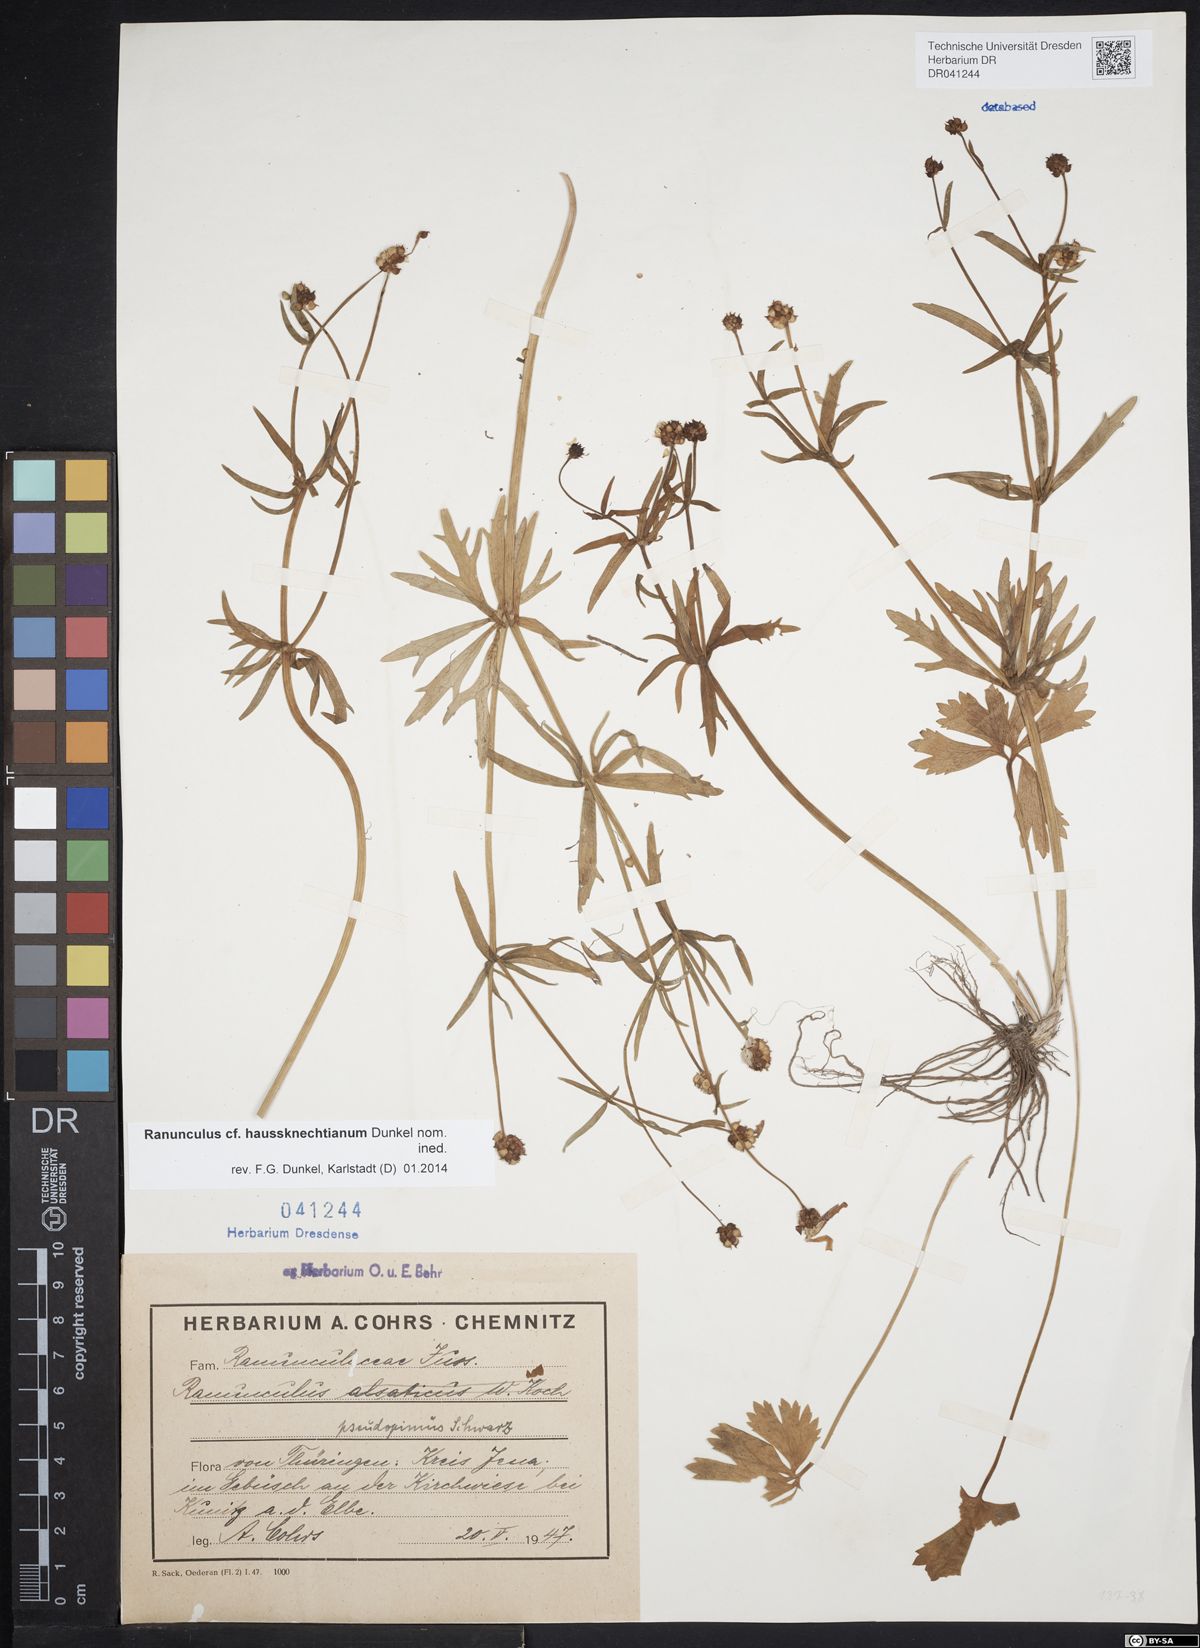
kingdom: Plantae
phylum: Tracheophyta
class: Magnoliopsida
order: Ranunculales
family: Ranunculaceae
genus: Ranunculus
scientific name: Ranunculus auricomus
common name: Goldilocks buttercup
